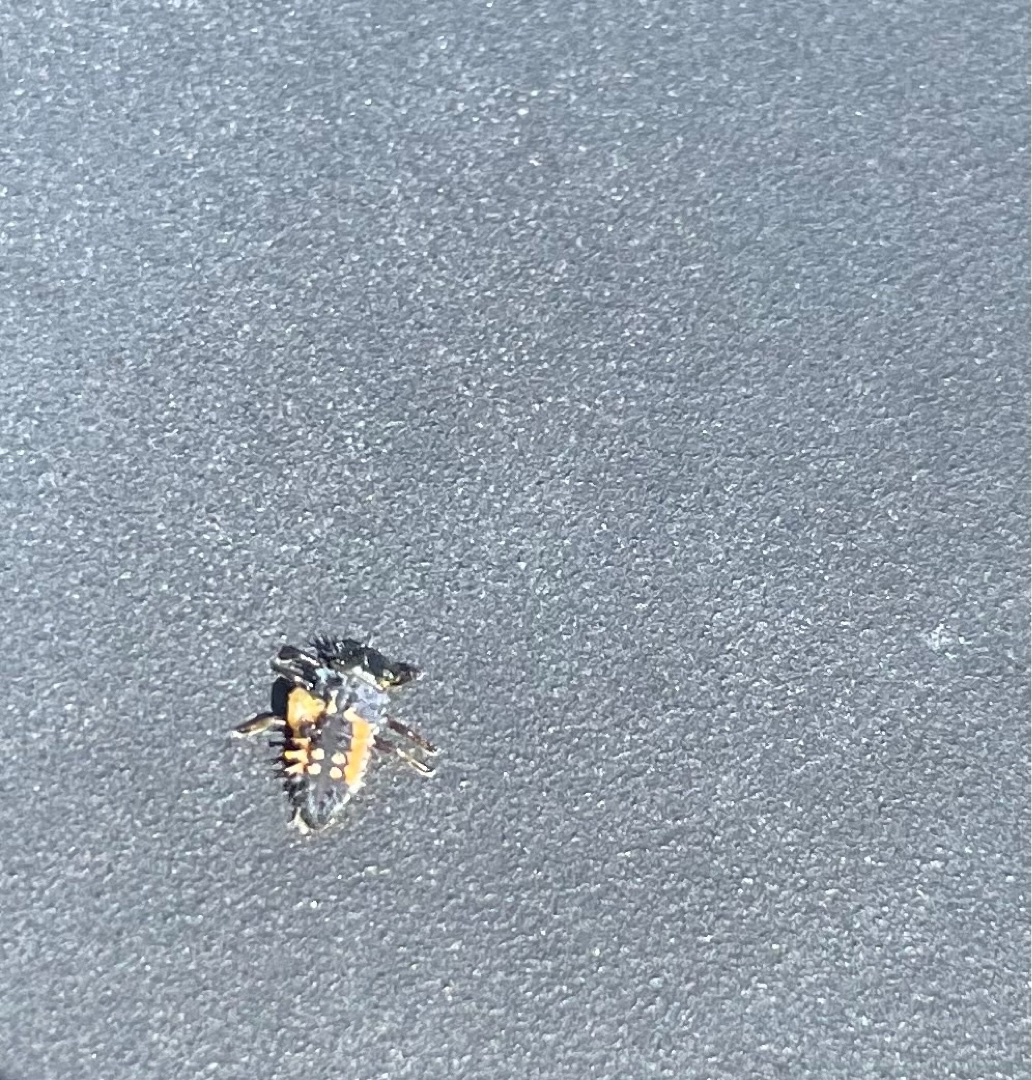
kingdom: Animalia
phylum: Arthropoda
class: Insecta
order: Coleoptera
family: Coccinellidae
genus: Harmonia
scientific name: Harmonia axyridis
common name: Harlekinmariehøne
